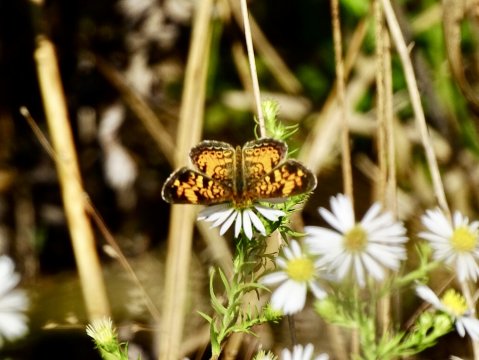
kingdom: Animalia
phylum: Arthropoda
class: Insecta
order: Lepidoptera
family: Nymphalidae
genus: Phyciodes
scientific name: Phyciodes tharos
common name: Pearl Crescent
